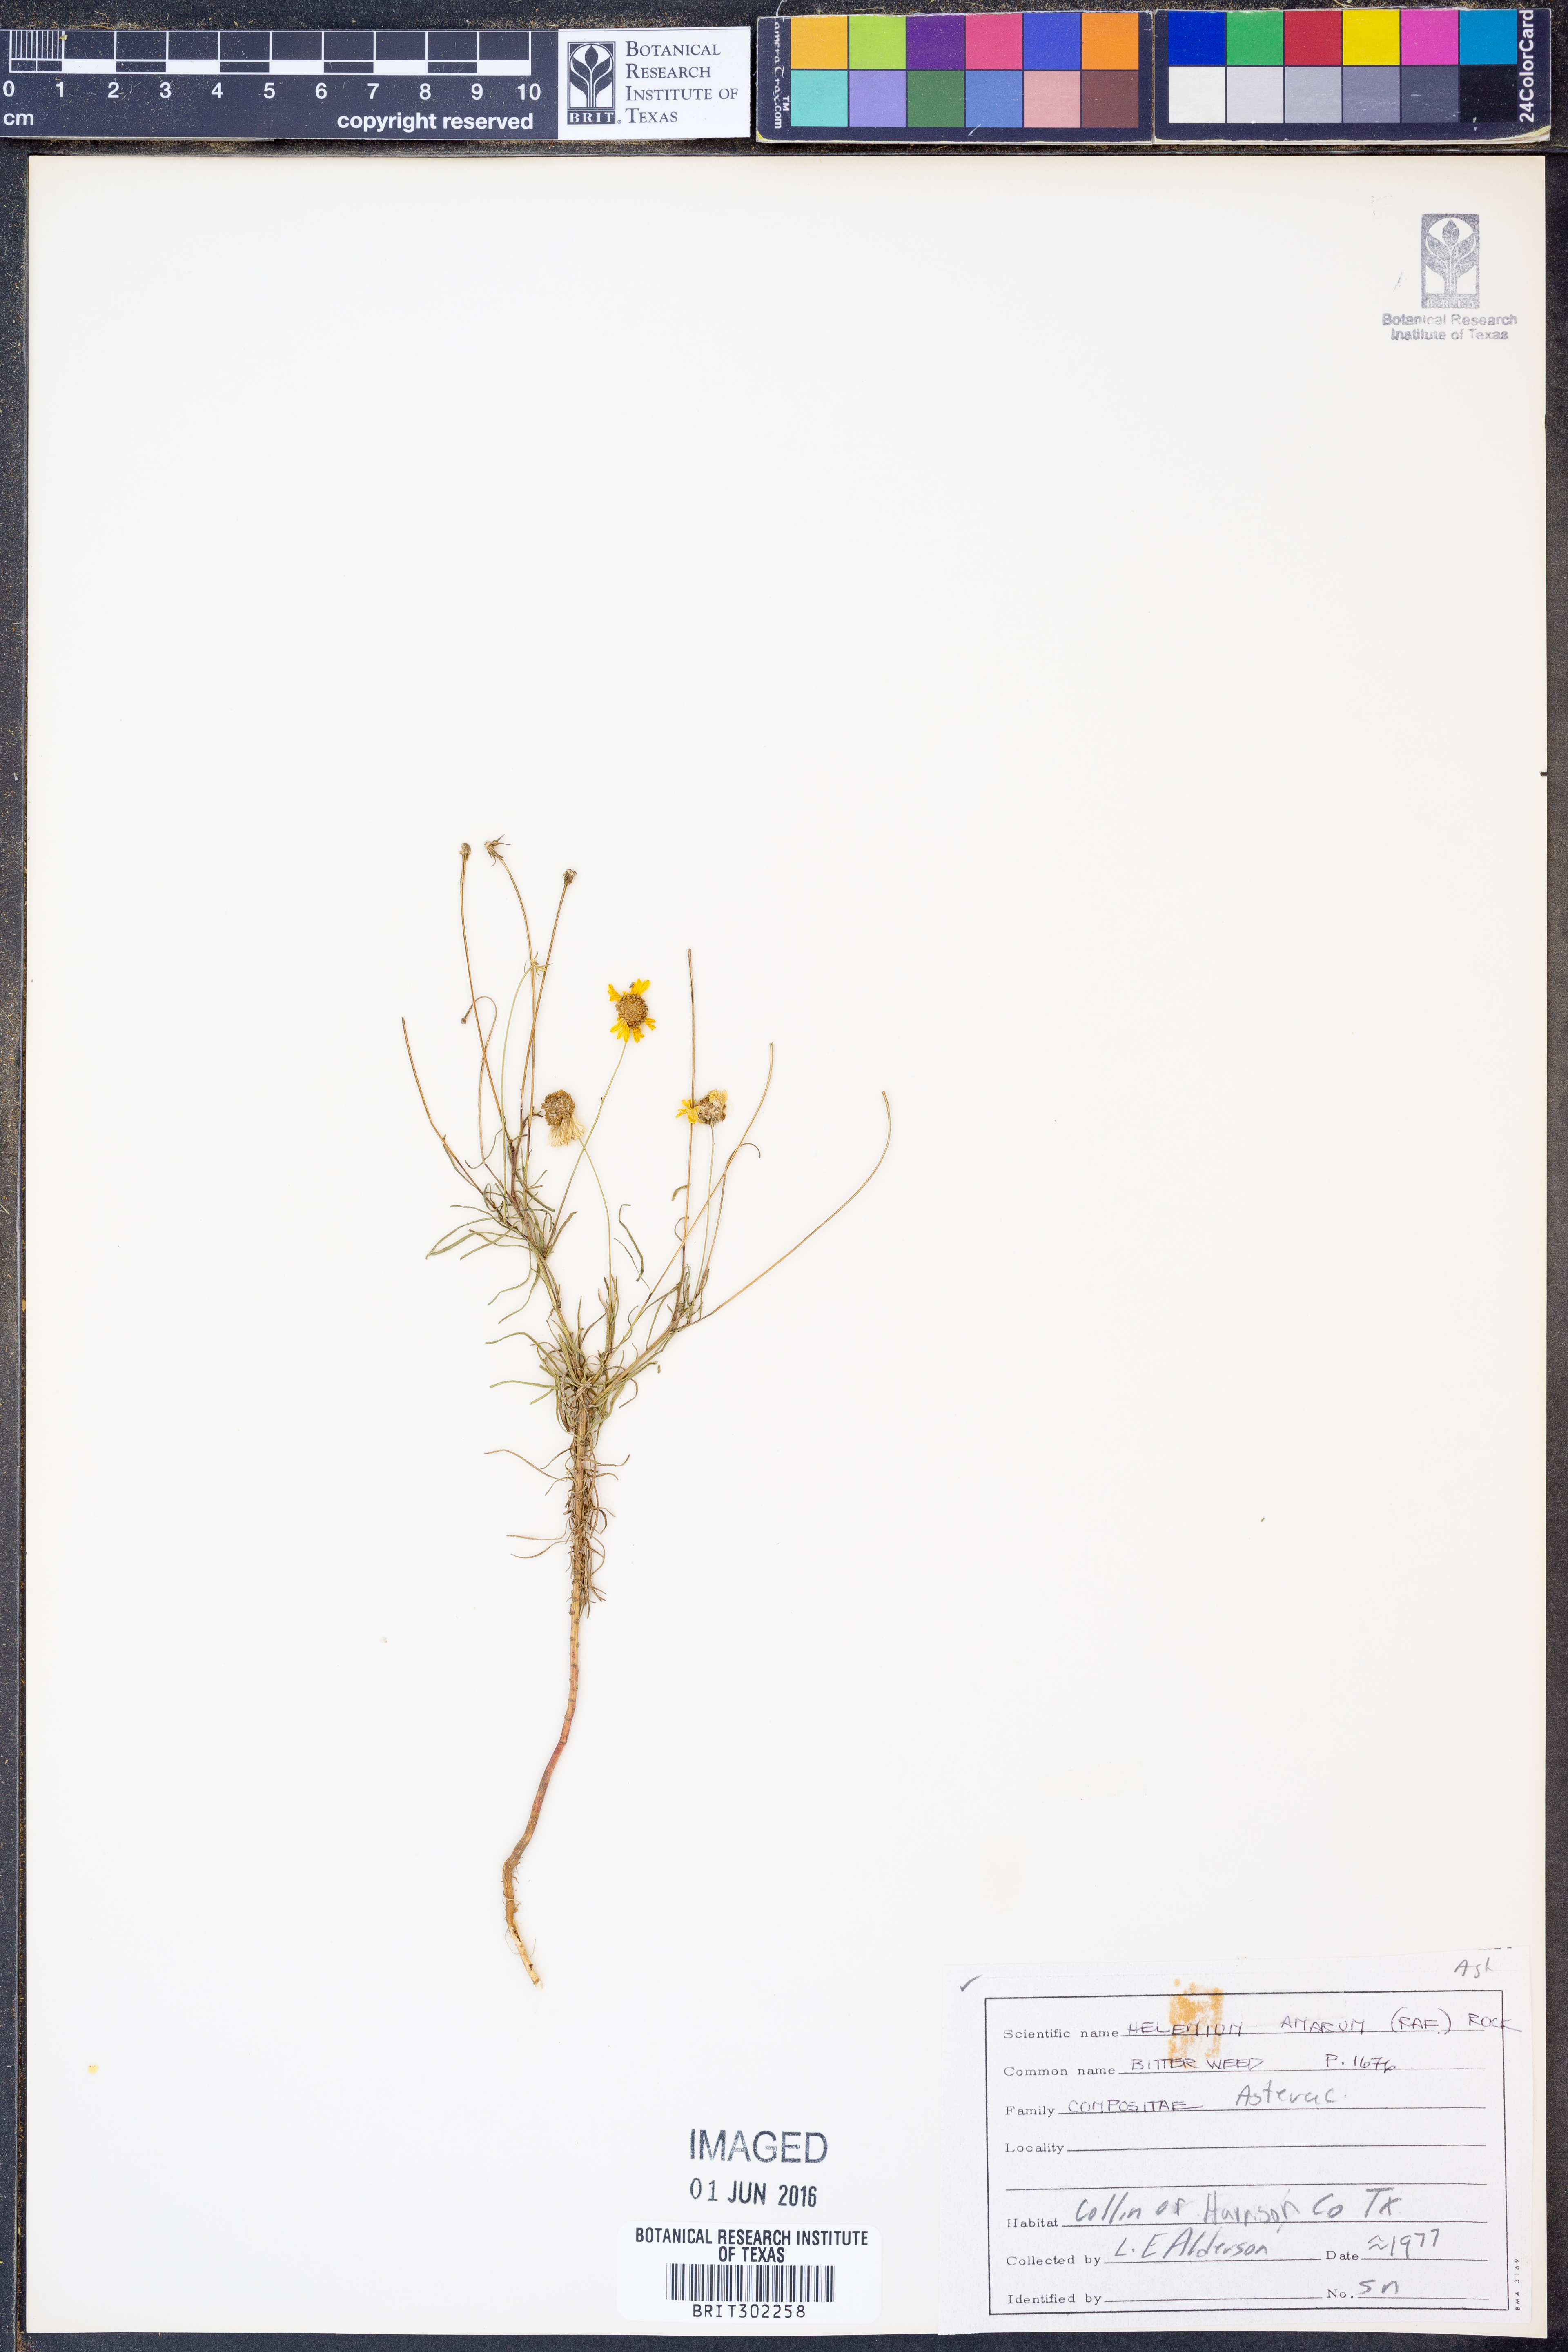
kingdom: Plantae
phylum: Tracheophyta
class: Magnoliopsida
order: Asterales
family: Asteraceae
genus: Helenium
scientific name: Helenium amarum
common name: Bitter sneezeweed
